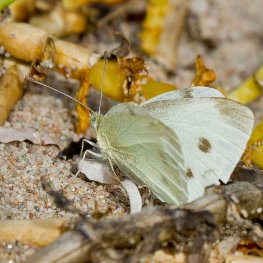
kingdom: Animalia
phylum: Arthropoda
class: Insecta
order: Lepidoptera
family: Pieridae
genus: Pieris
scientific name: Pieris rapae
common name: Cabbage White
